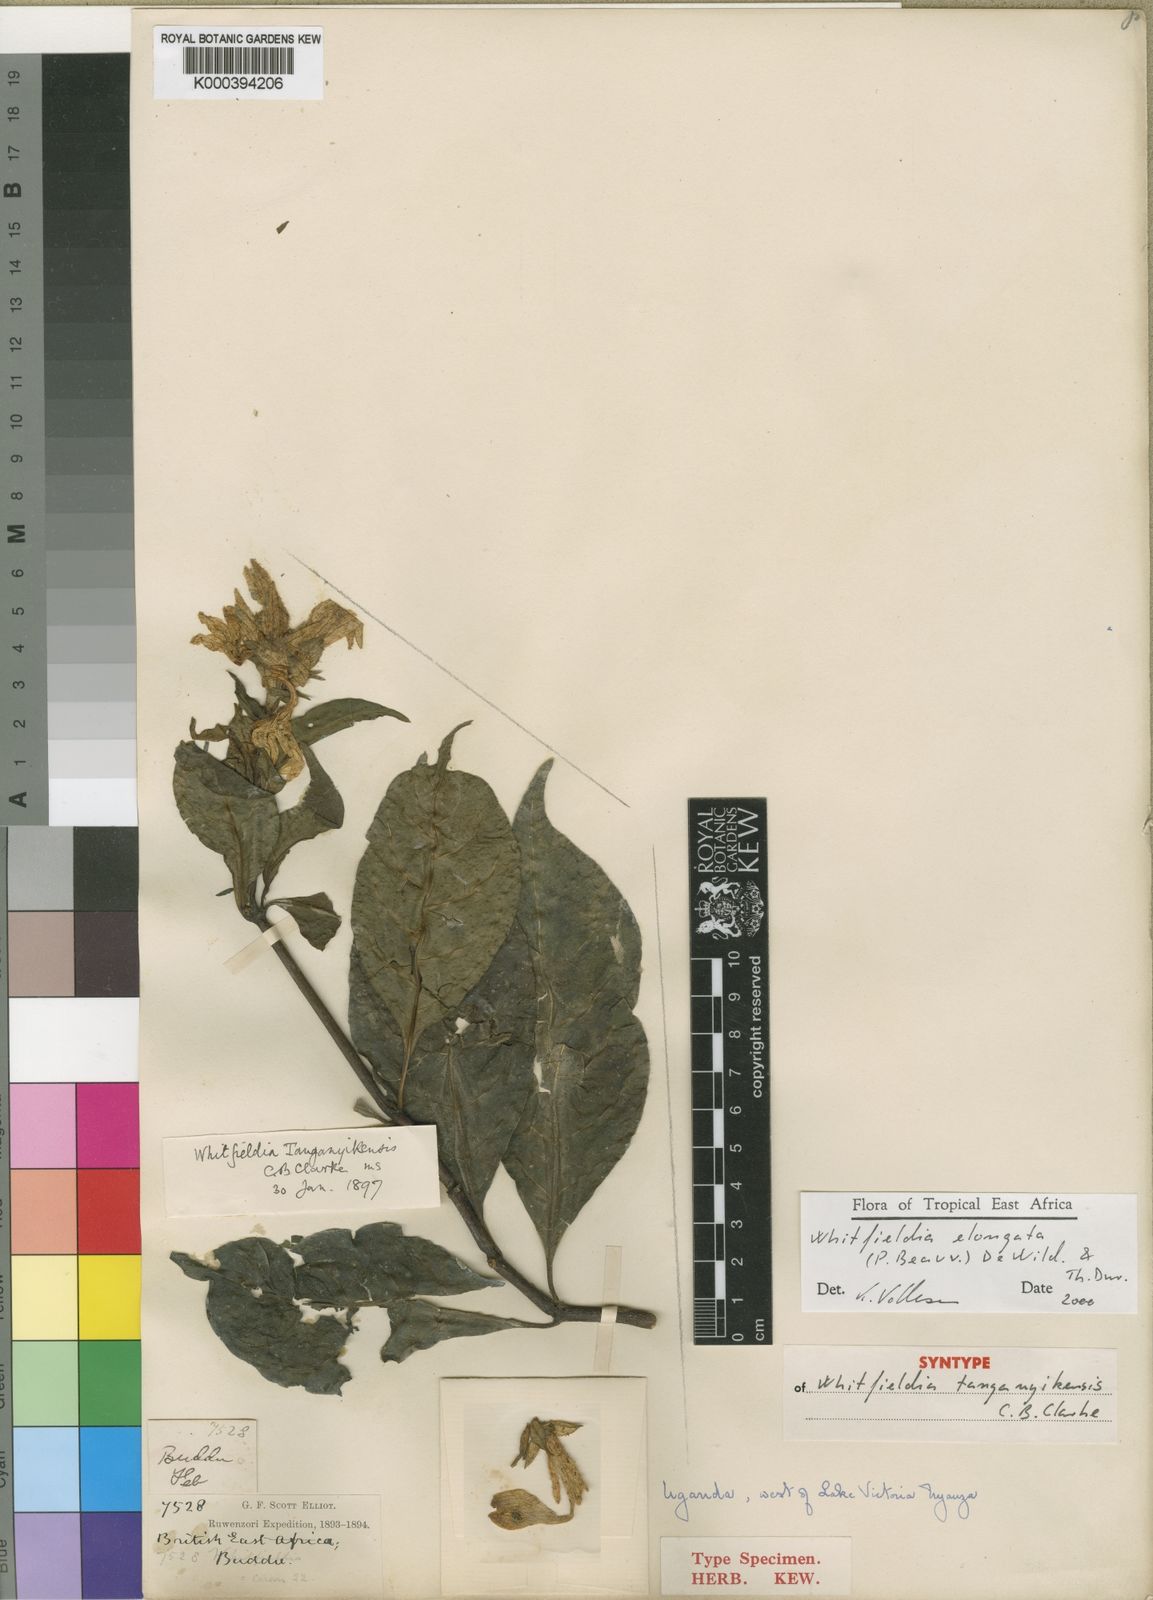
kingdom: Plantae
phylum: Tracheophyta
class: Magnoliopsida
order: Lamiales
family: Acanthaceae
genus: Whitfieldia
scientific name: Whitfieldia elongata
